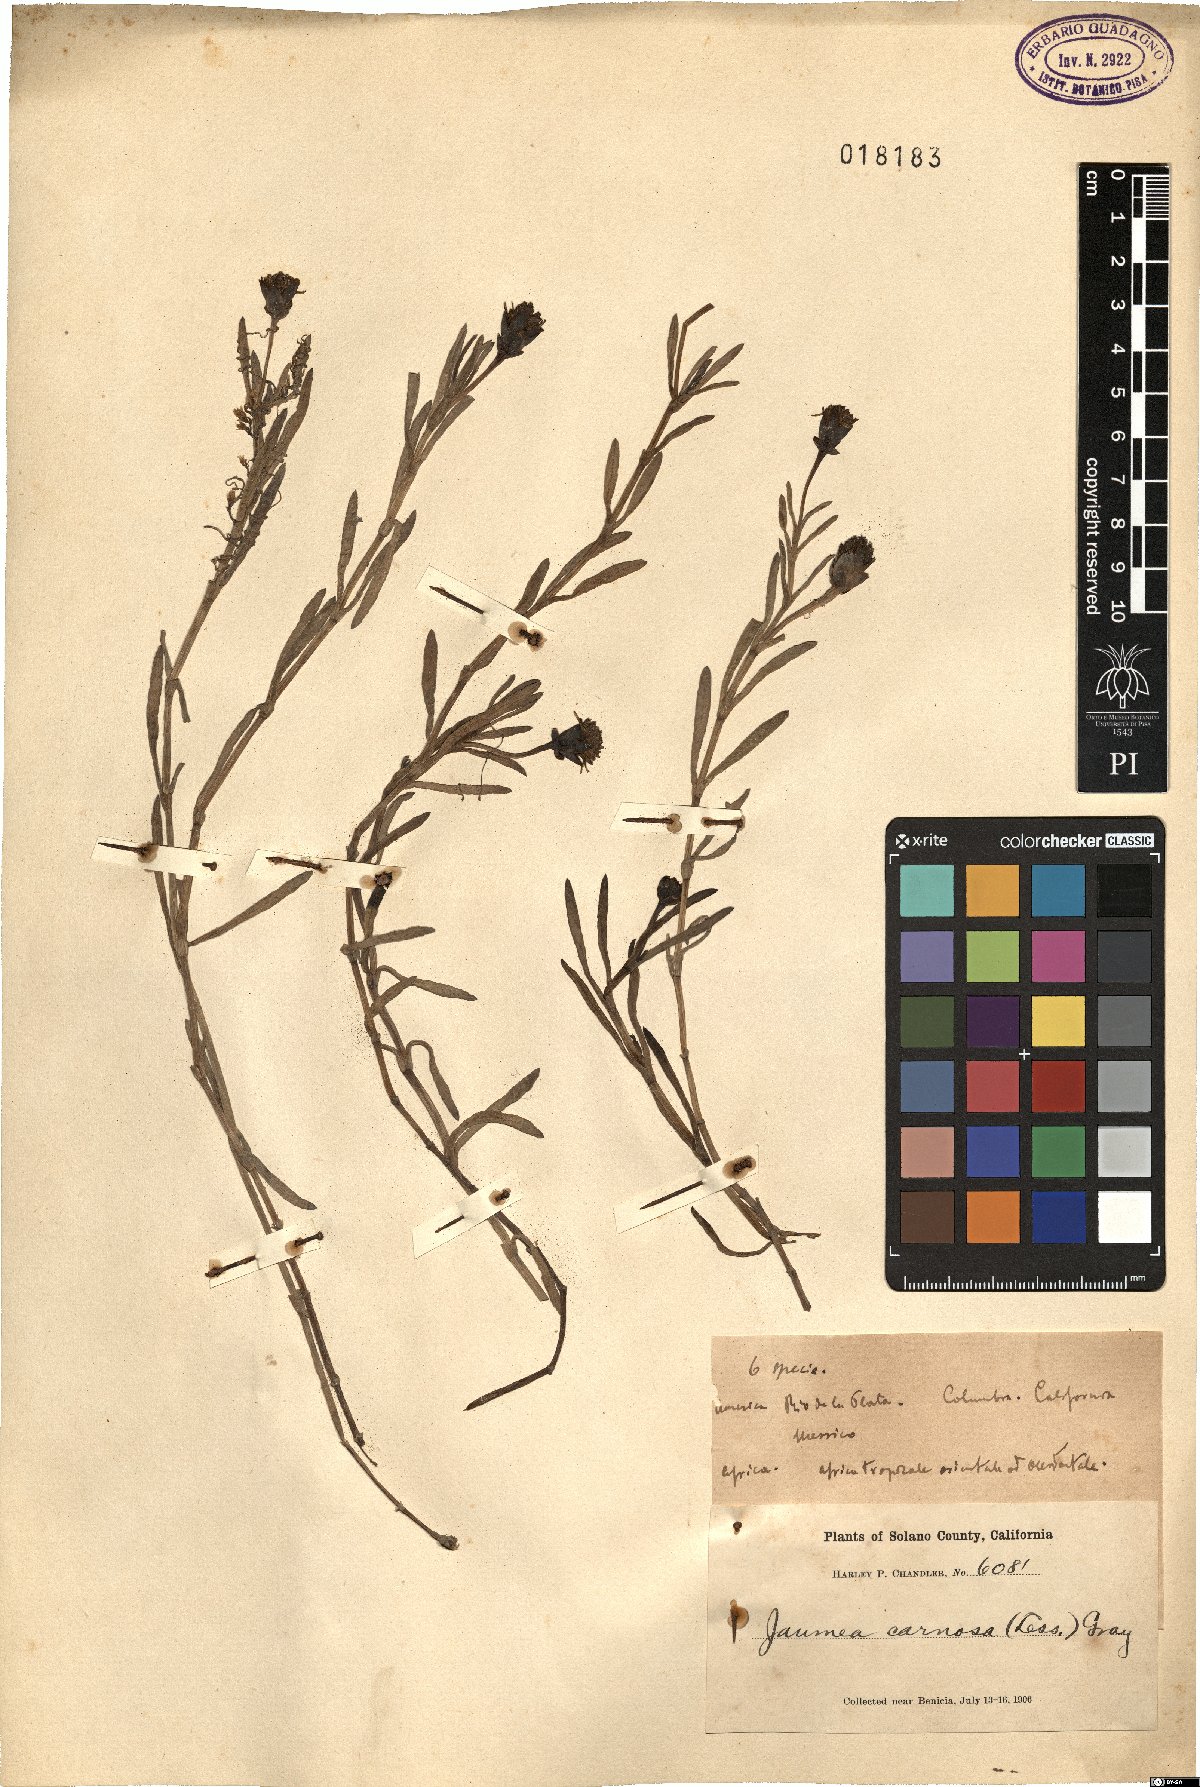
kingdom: Plantae
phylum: Tracheophyta
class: Magnoliopsida
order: Asterales
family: Asteraceae
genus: Jaumea
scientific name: Jaumea carnosa
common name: Fleshy jaumea
